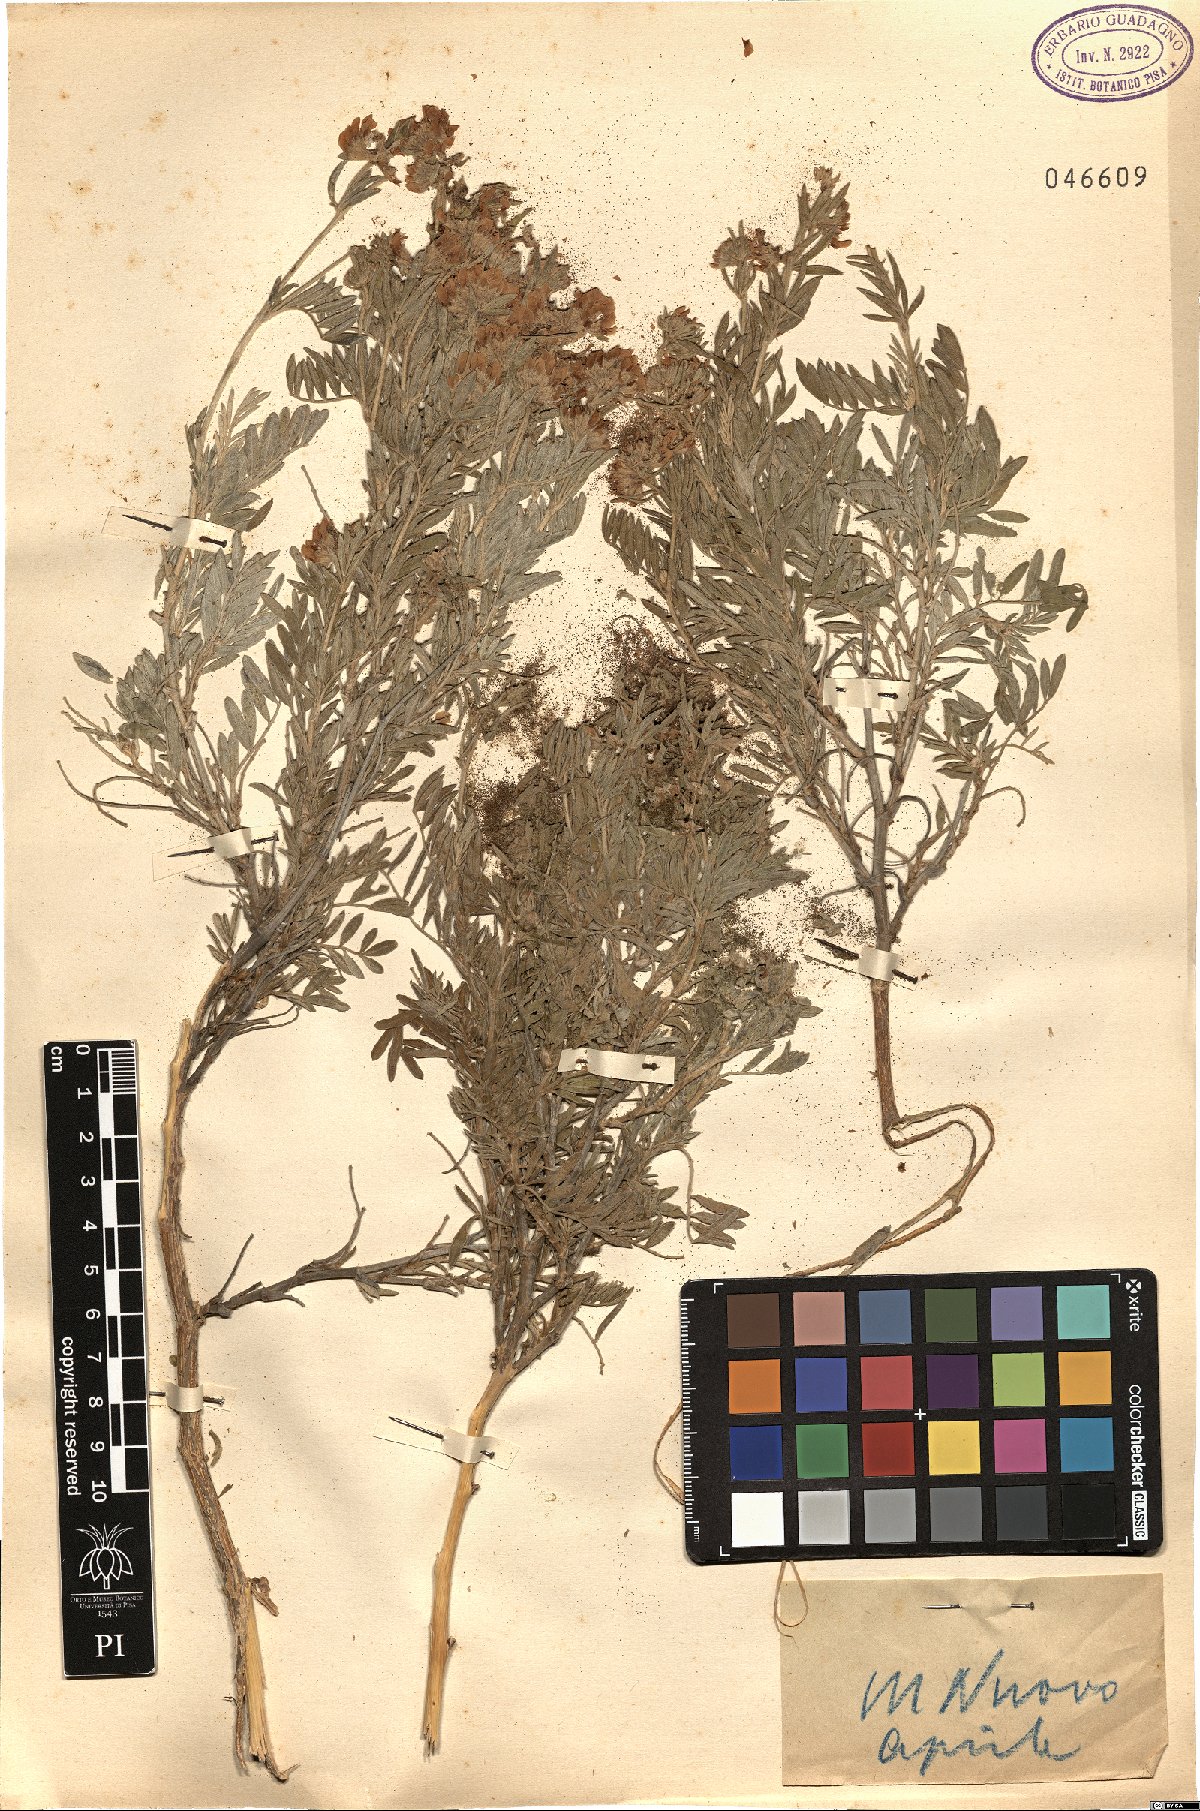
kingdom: Plantae
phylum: Tracheophyta
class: Magnoliopsida
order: Fabales
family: Fabaceae
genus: Anthyllis
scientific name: Anthyllis
